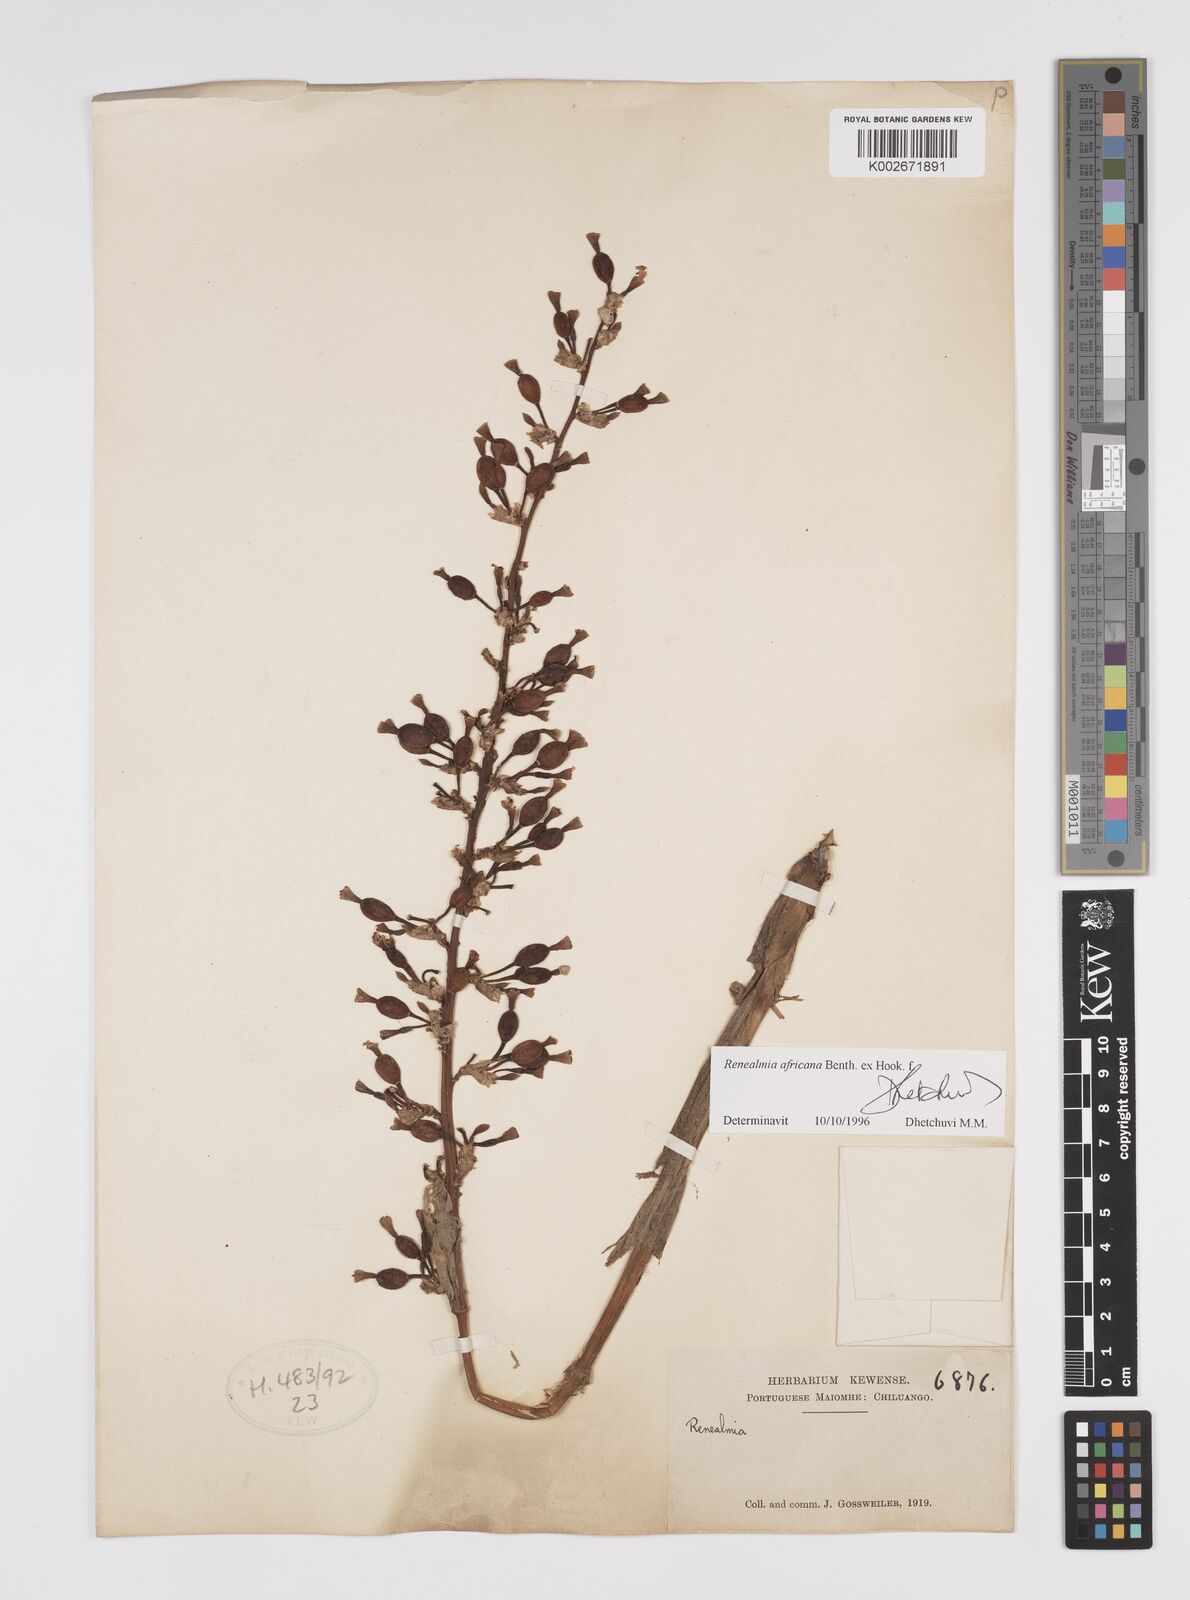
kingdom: Plantae
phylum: Tracheophyta
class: Liliopsida
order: Zingiberales
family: Zingiberaceae
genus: Renealmia
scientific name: Renealmia africana
